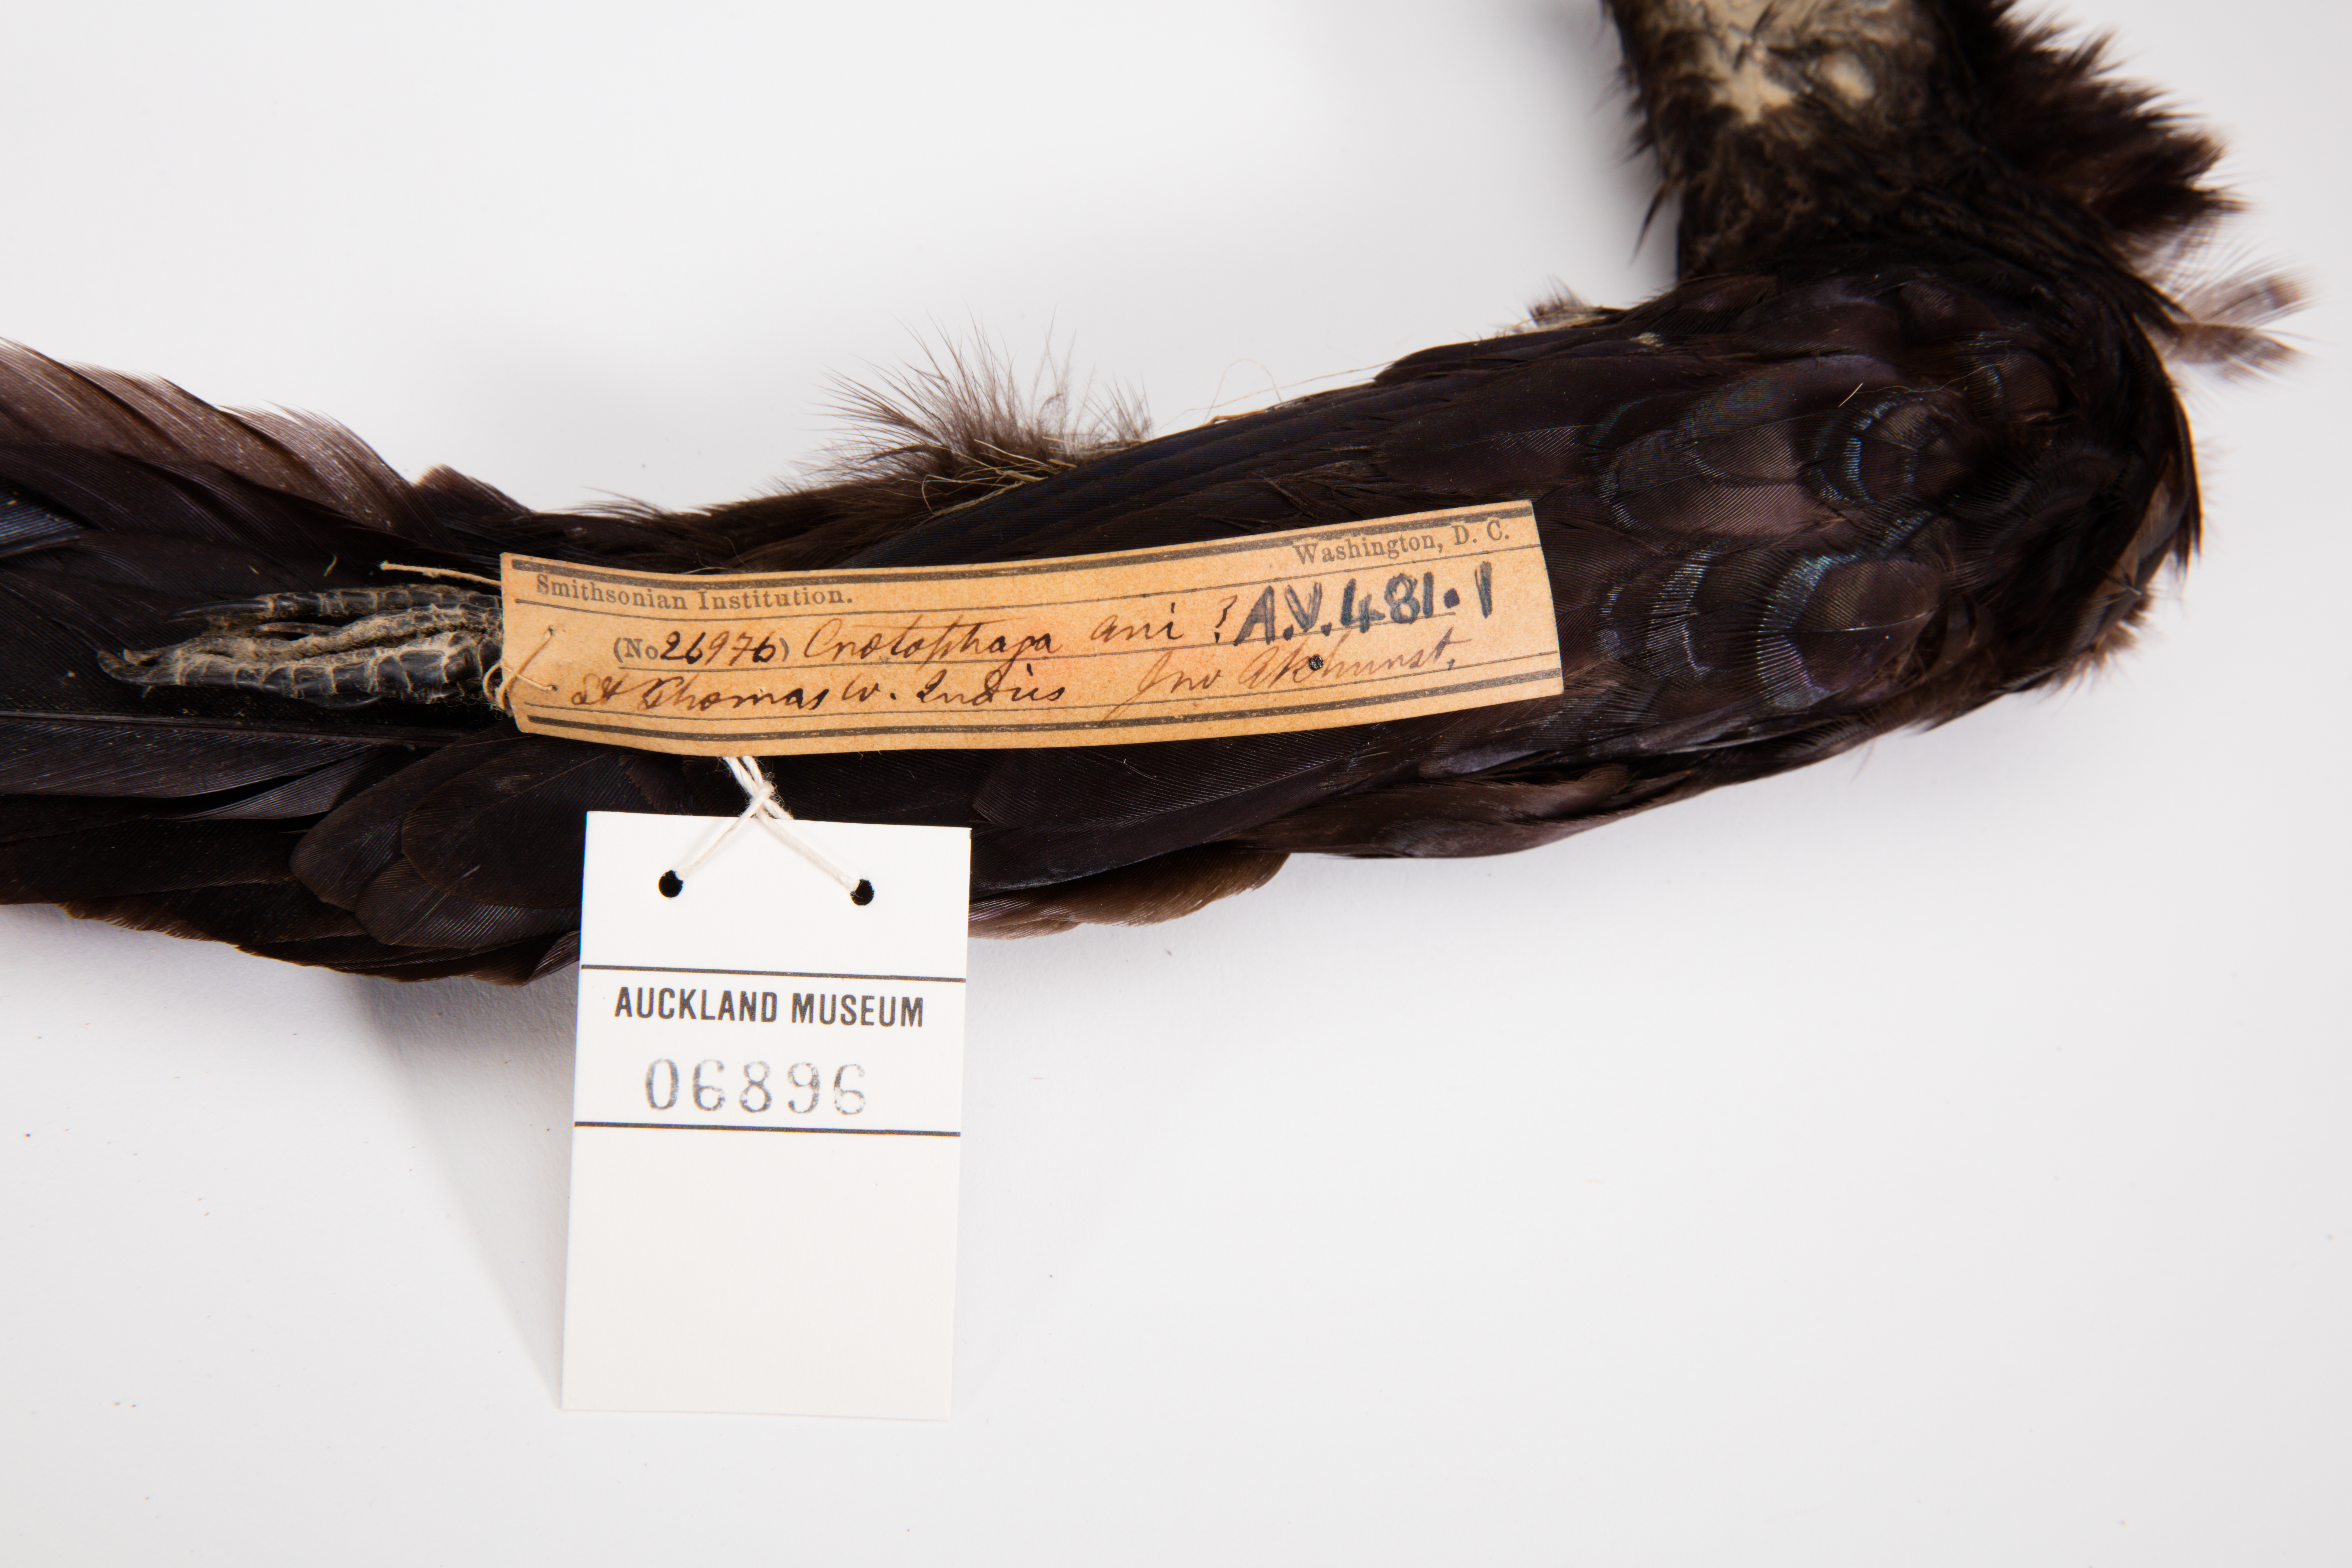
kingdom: Animalia
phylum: Chordata
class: Aves
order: Cuculiformes
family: Cuculidae
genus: Crotophaga
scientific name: Crotophaga ani
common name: Smooth-billed ani
